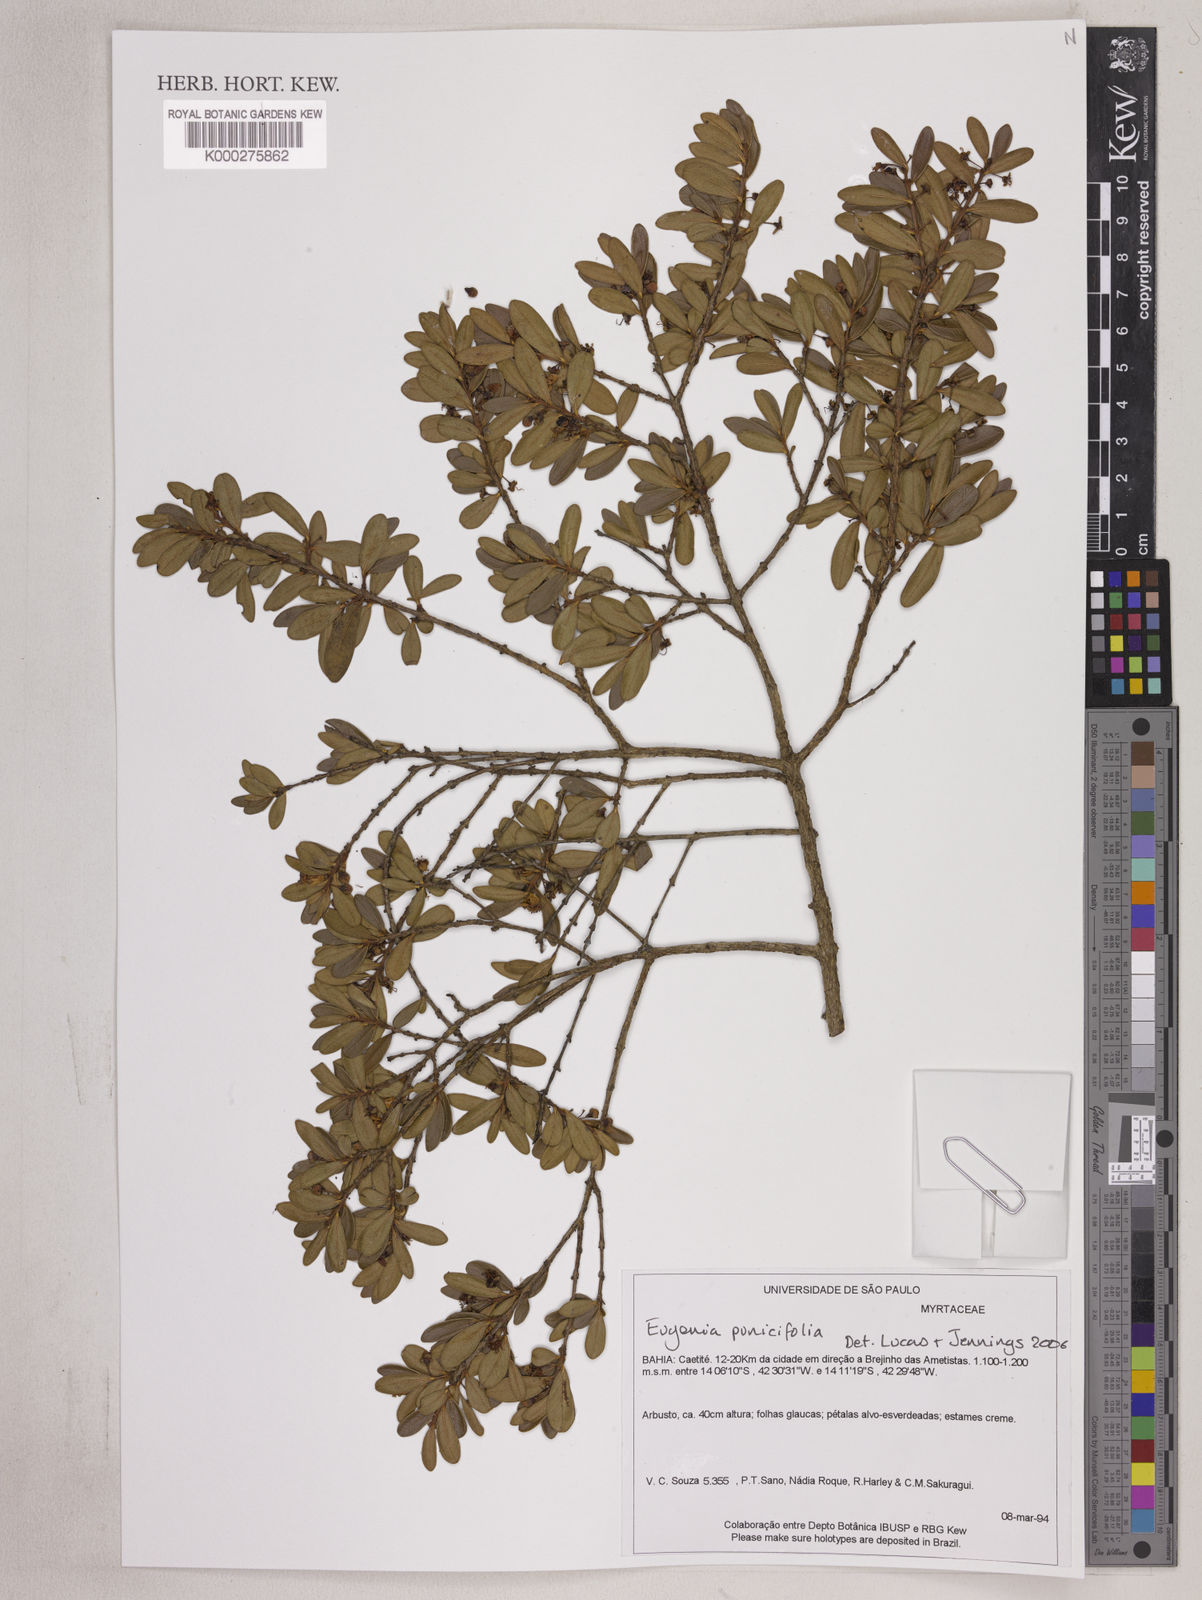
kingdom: Plantae
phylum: Tracheophyta
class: Magnoliopsida
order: Myrtales
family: Myrtaceae
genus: Eugenia
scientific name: Eugenia punicifolia
